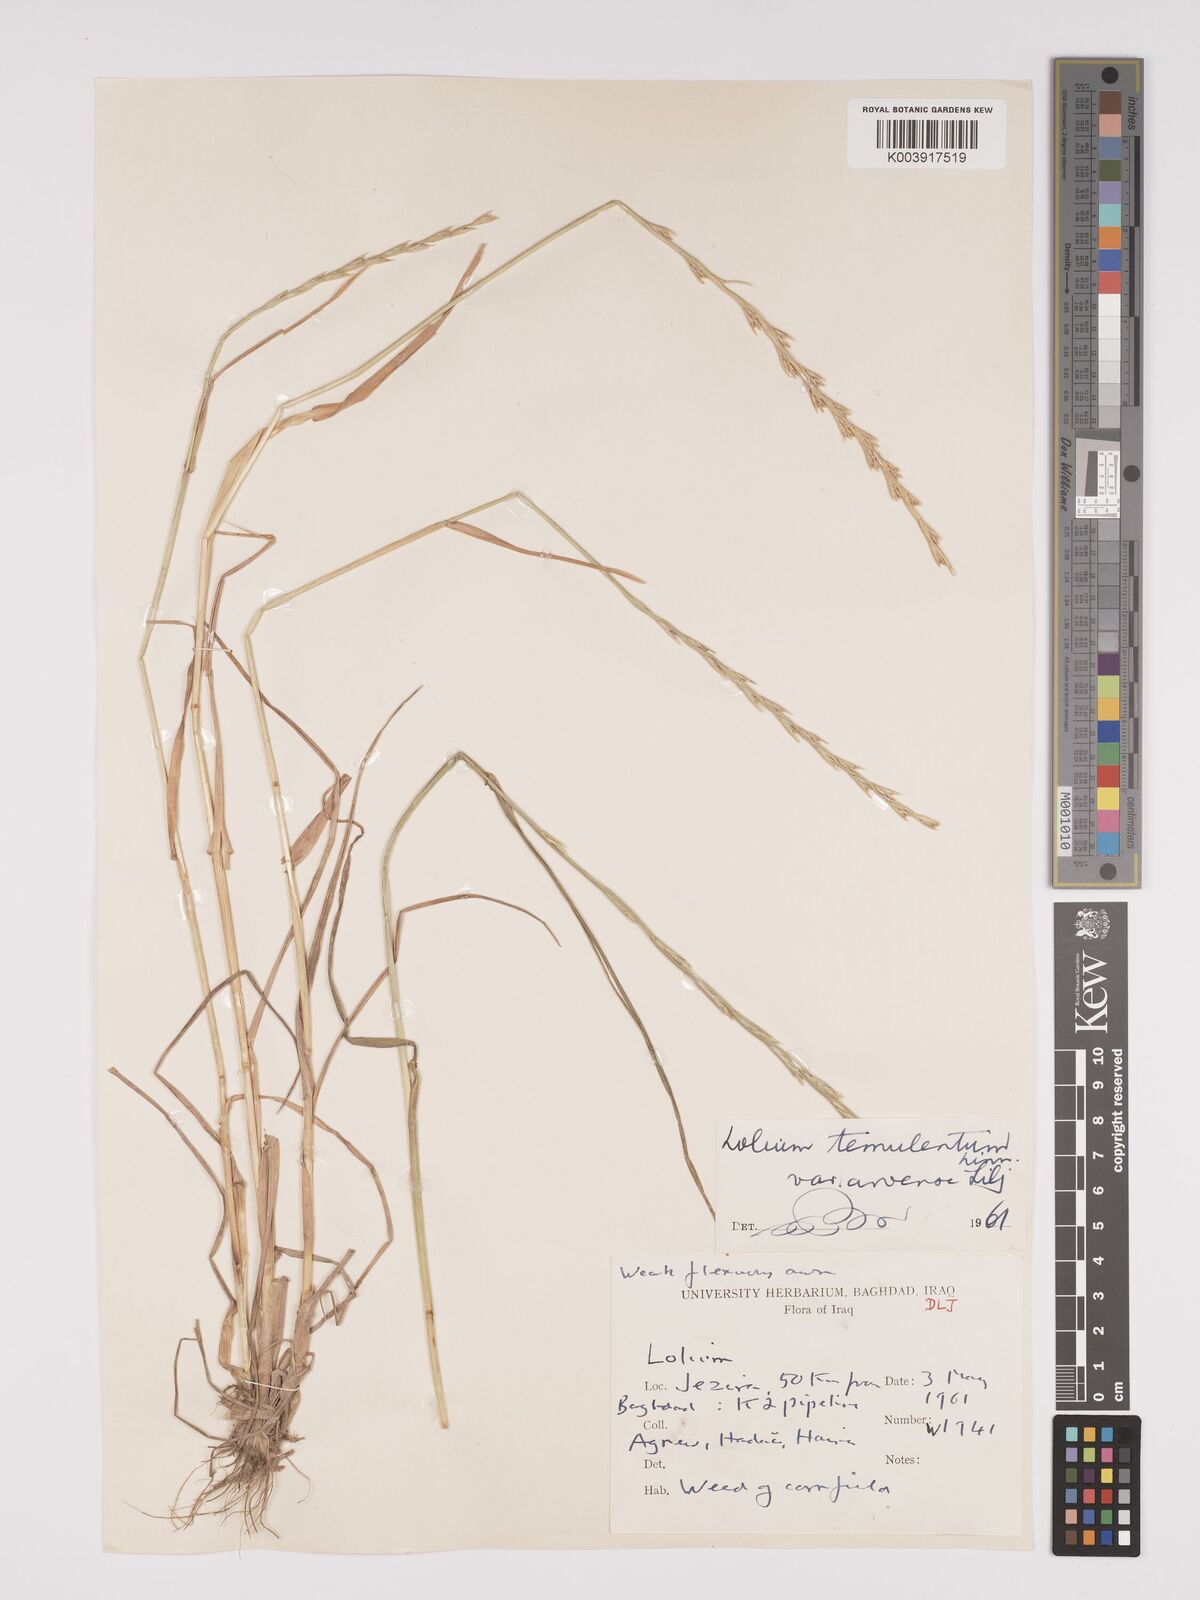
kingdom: Plantae
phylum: Tracheophyta
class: Liliopsida
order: Poales
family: Poaceae
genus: Lolium
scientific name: Lolium temulentum
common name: Darnel
